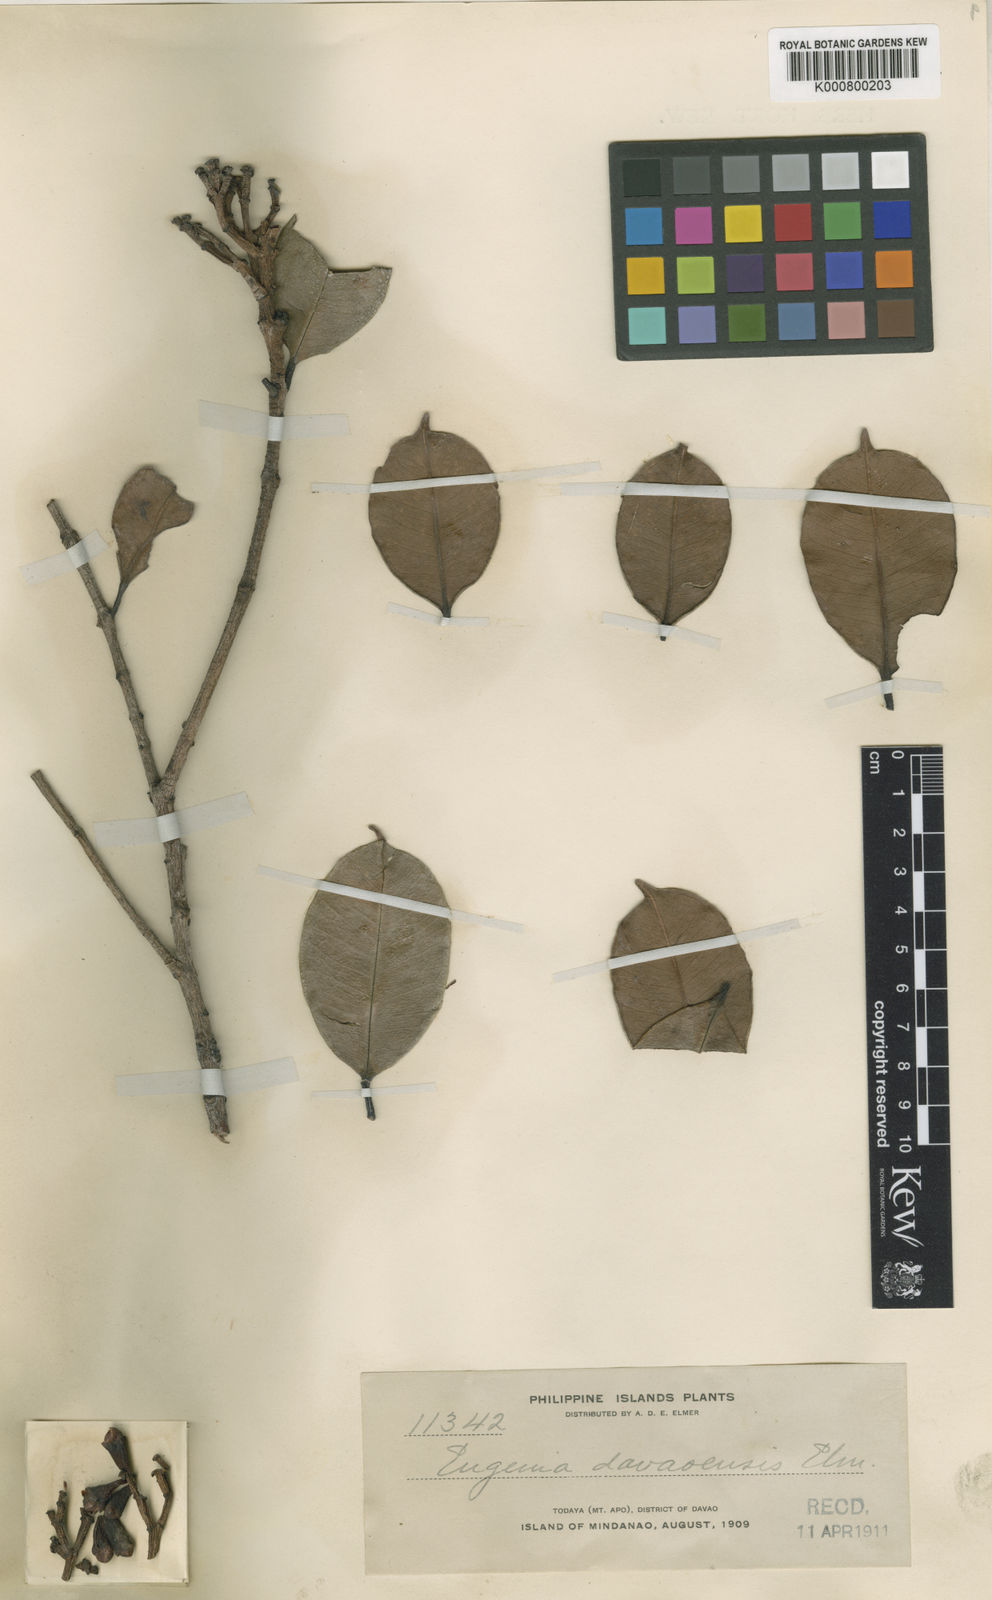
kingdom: Plantae
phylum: Tracheophyta
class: Magnoliopsida
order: Myrtales
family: Myrtaceae
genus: Syzygium
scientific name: Syzygium davaoense
